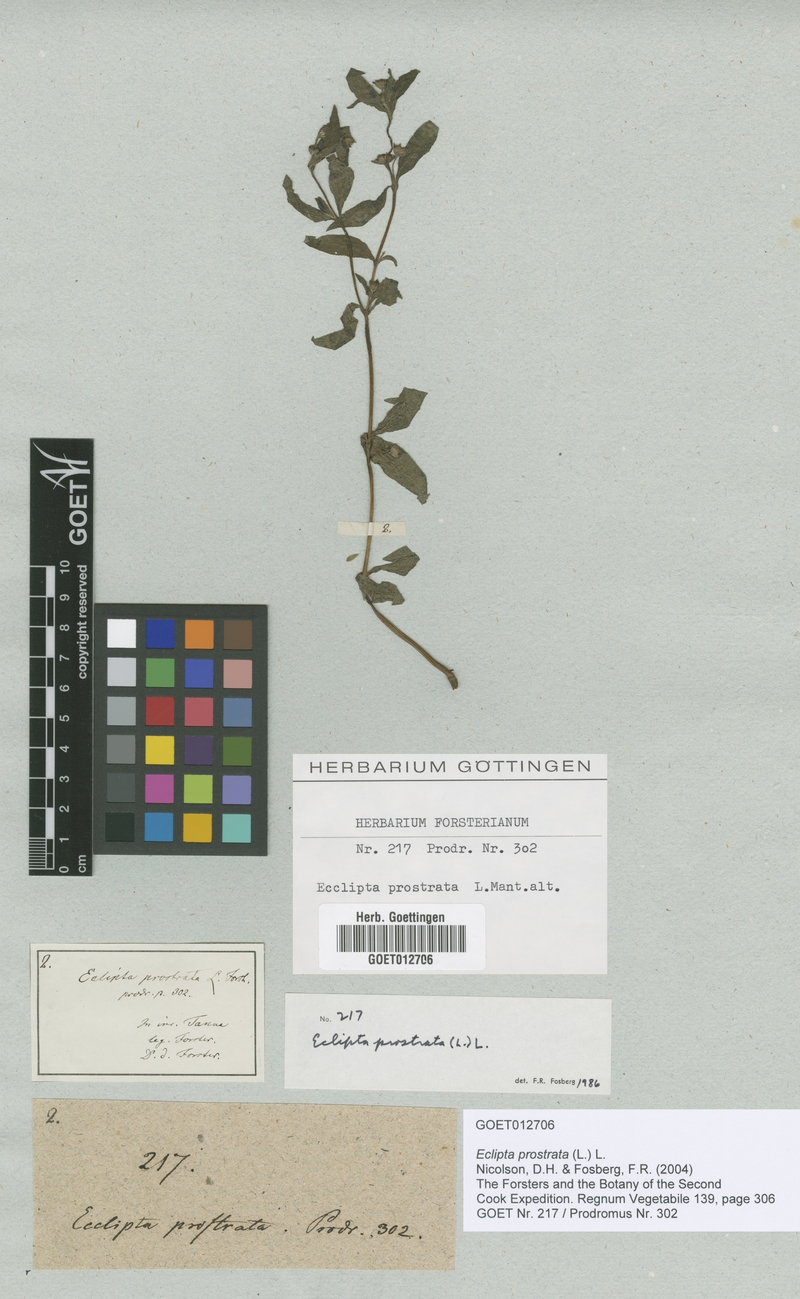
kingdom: Plantae
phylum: Tracheophyta
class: Magnoliopsida
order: Asterales
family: Asteraceae
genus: Eclipta
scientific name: Eclipta prostrata
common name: False daisy
